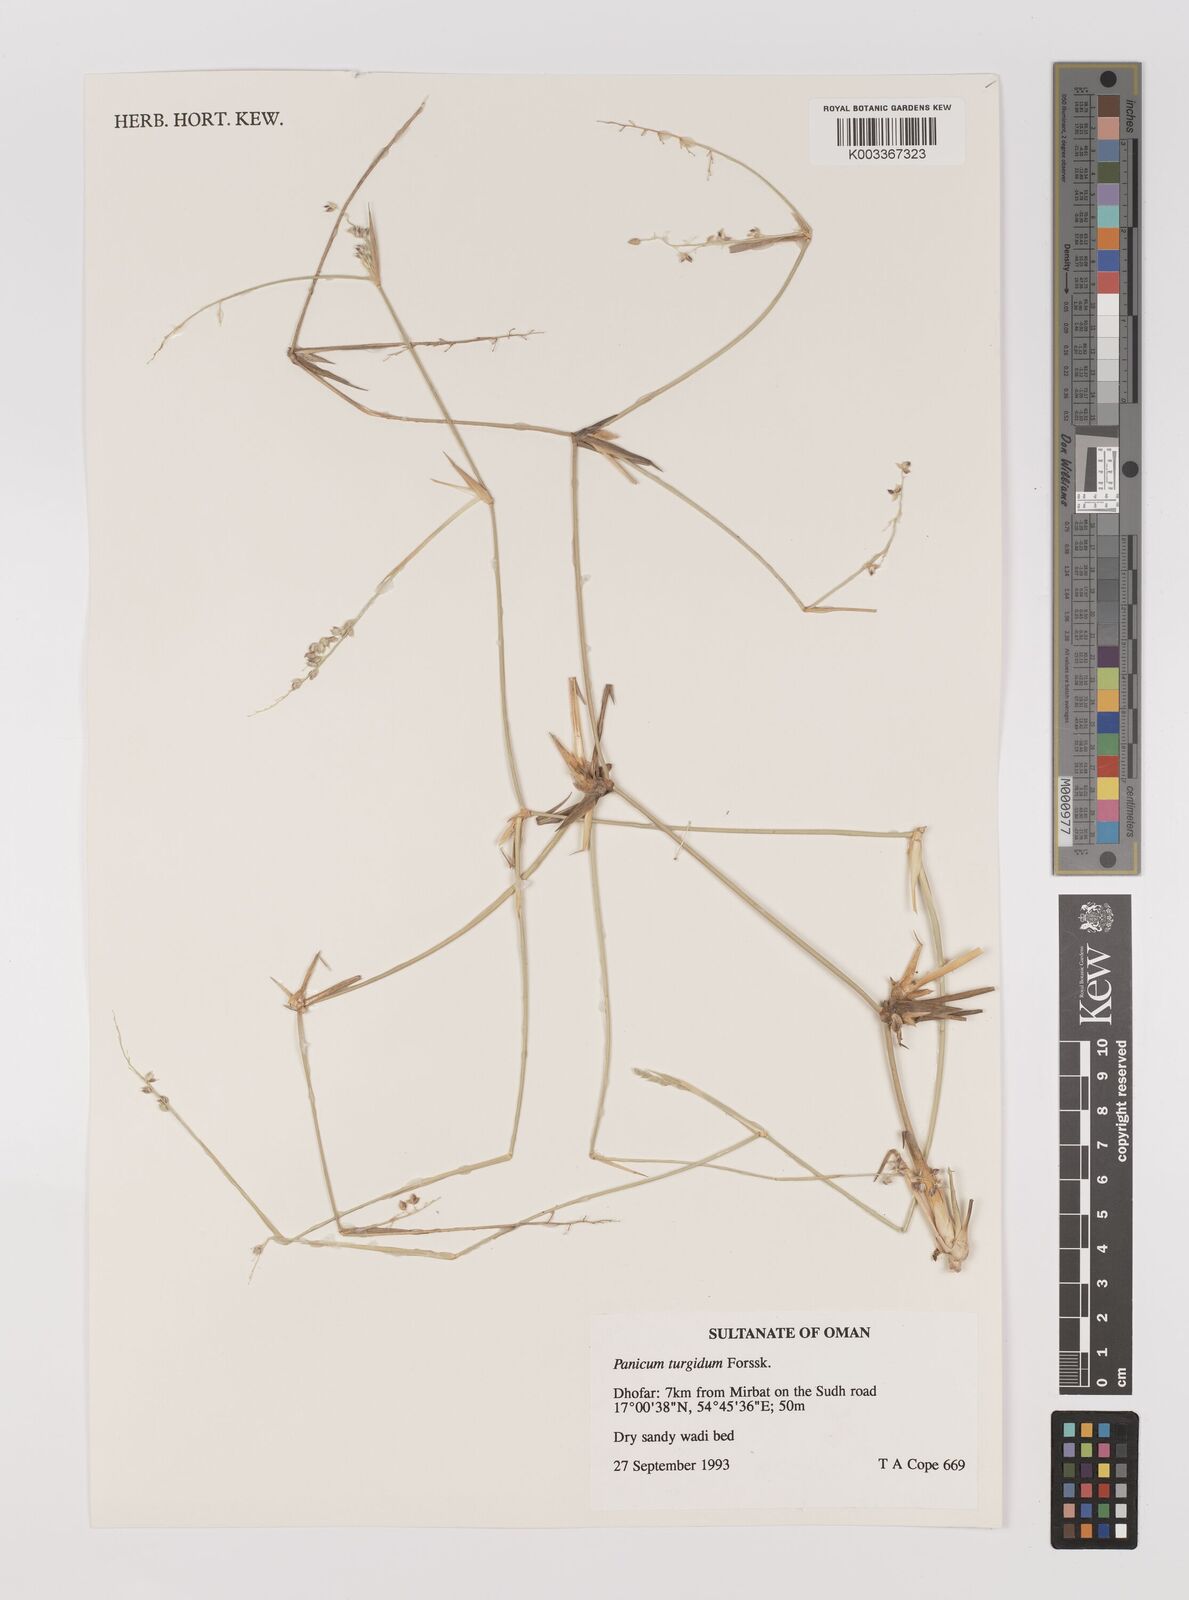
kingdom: Plantae
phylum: Tracheophyta
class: Liliopsida
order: Poales
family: Poaceae
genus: Panicum
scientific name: Panicum turgidum
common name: Desert grass
